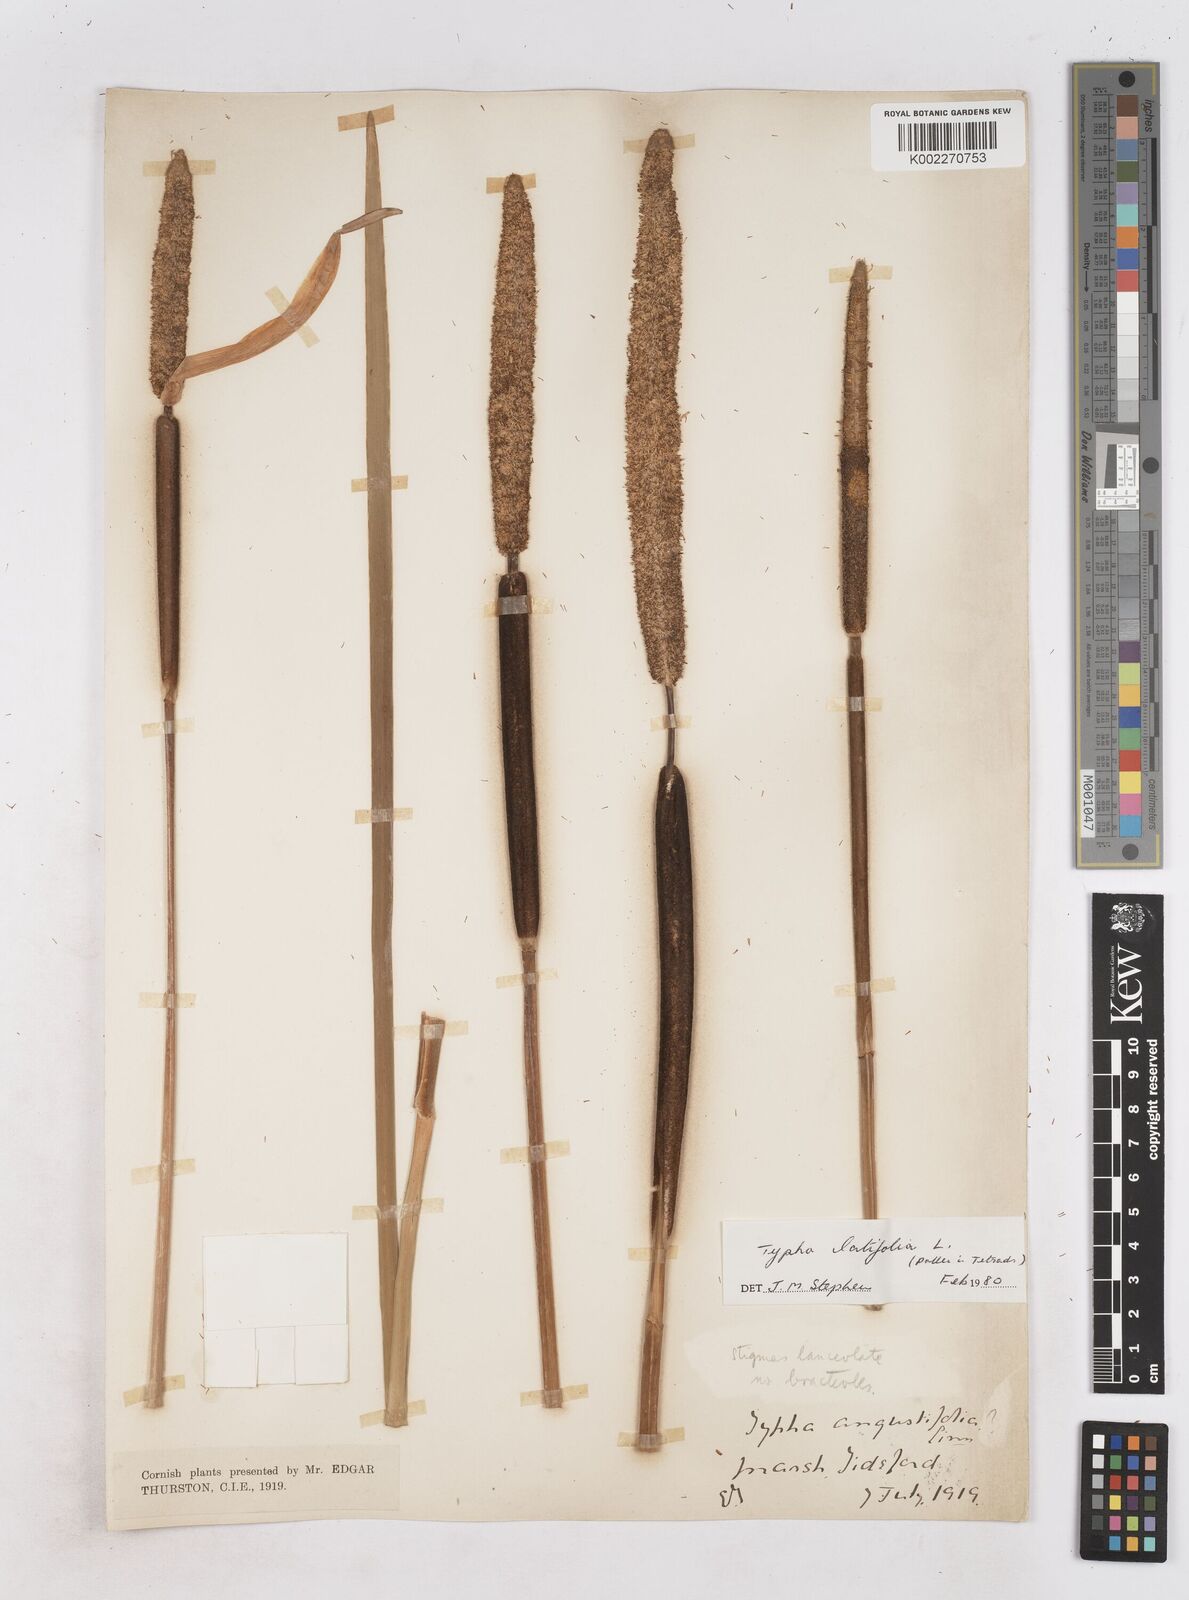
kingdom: Plantae
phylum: Tracheophyta
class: Liliopsida
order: Poales
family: Typhaceae
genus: Typha
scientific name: Typha latifolia
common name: Broadleaf cattail
